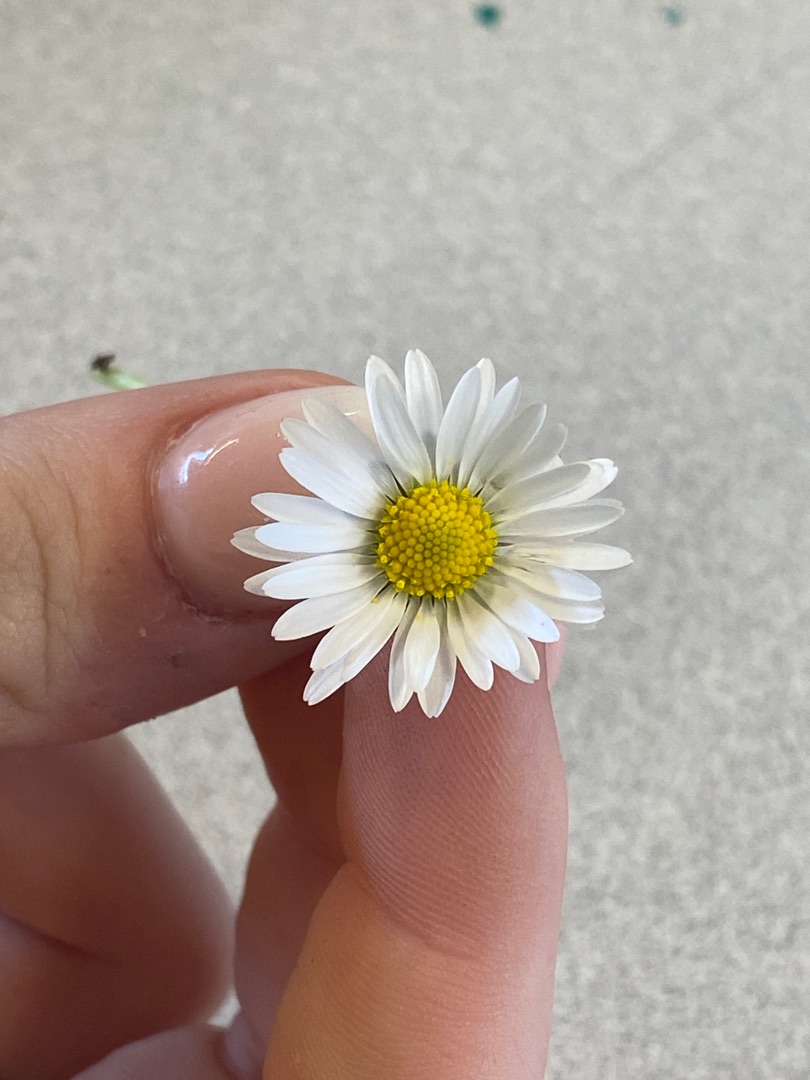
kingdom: Plantae
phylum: Tracheophyta
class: Magnoliopsida
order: Asterales
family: Asteraceae
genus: Bellis
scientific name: Bellis perennis
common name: Tusindfryd
